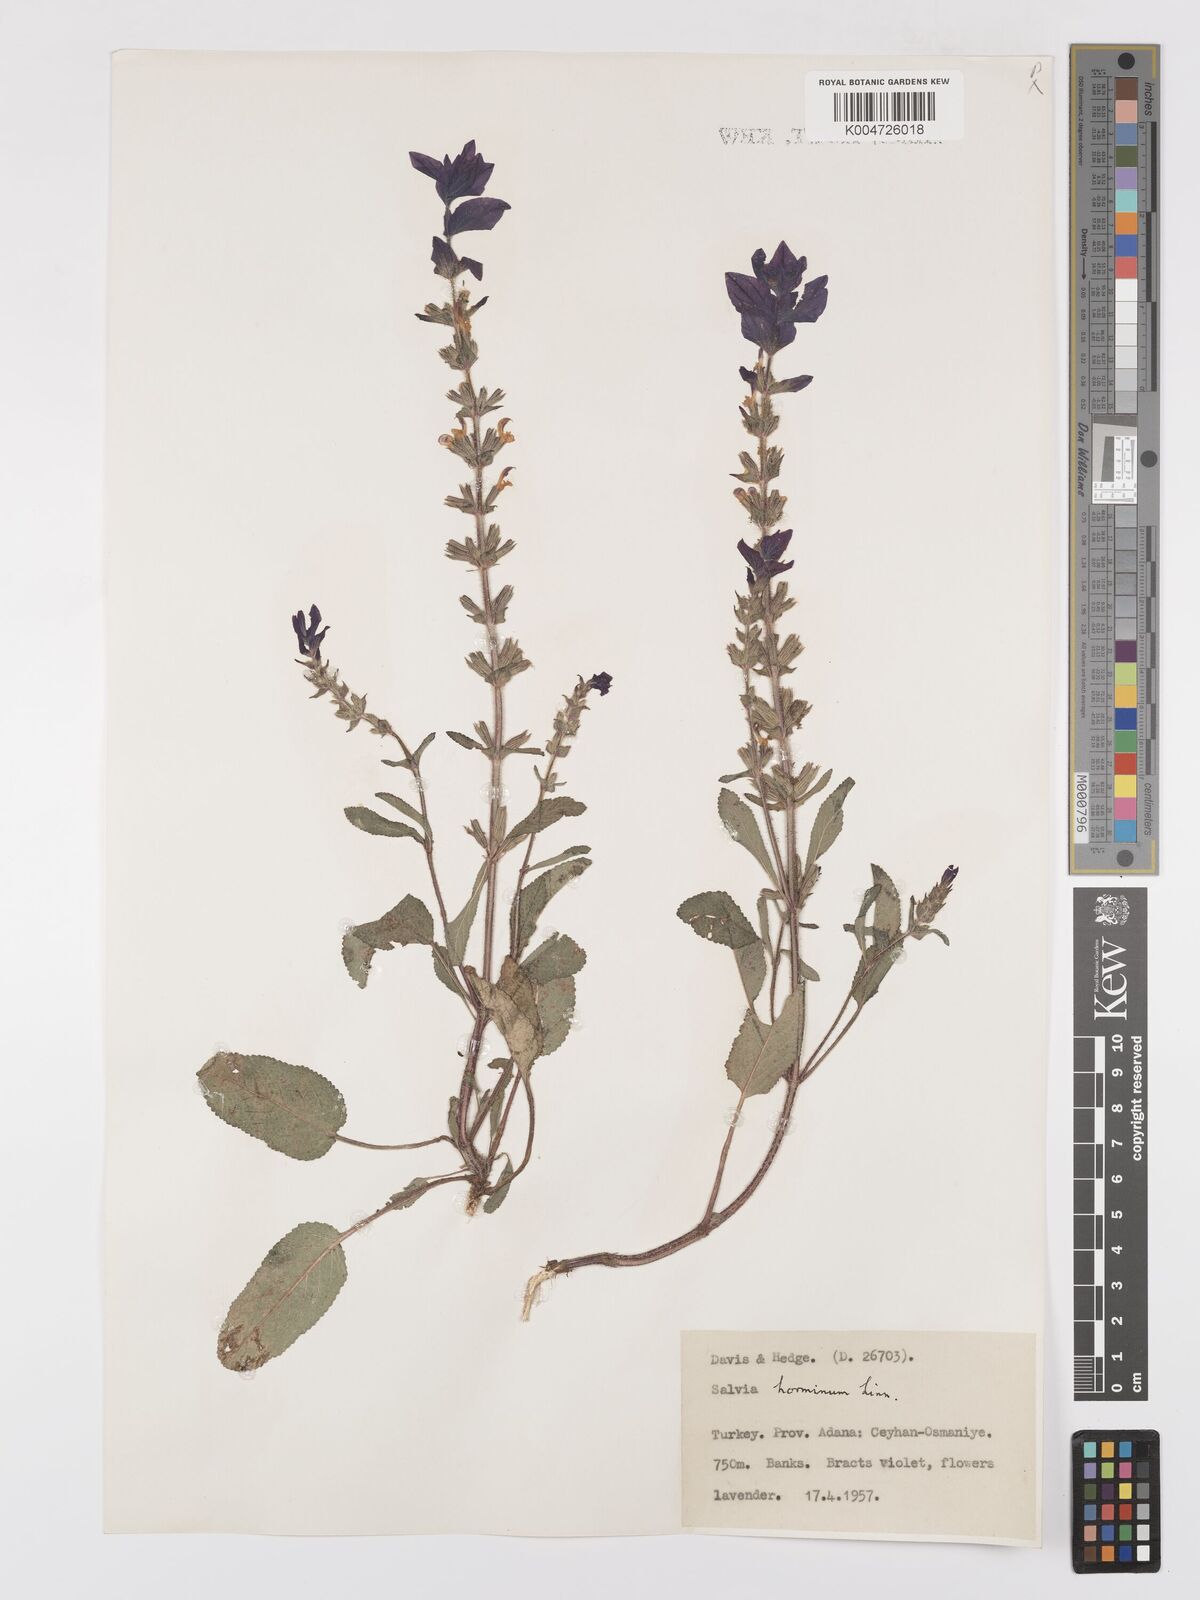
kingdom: Plantae
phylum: Tracheophyta
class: Magnoliopsida
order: Lamiales
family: Lamiaceae
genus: Salvia
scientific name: Salvia viridis
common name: Annual clary
